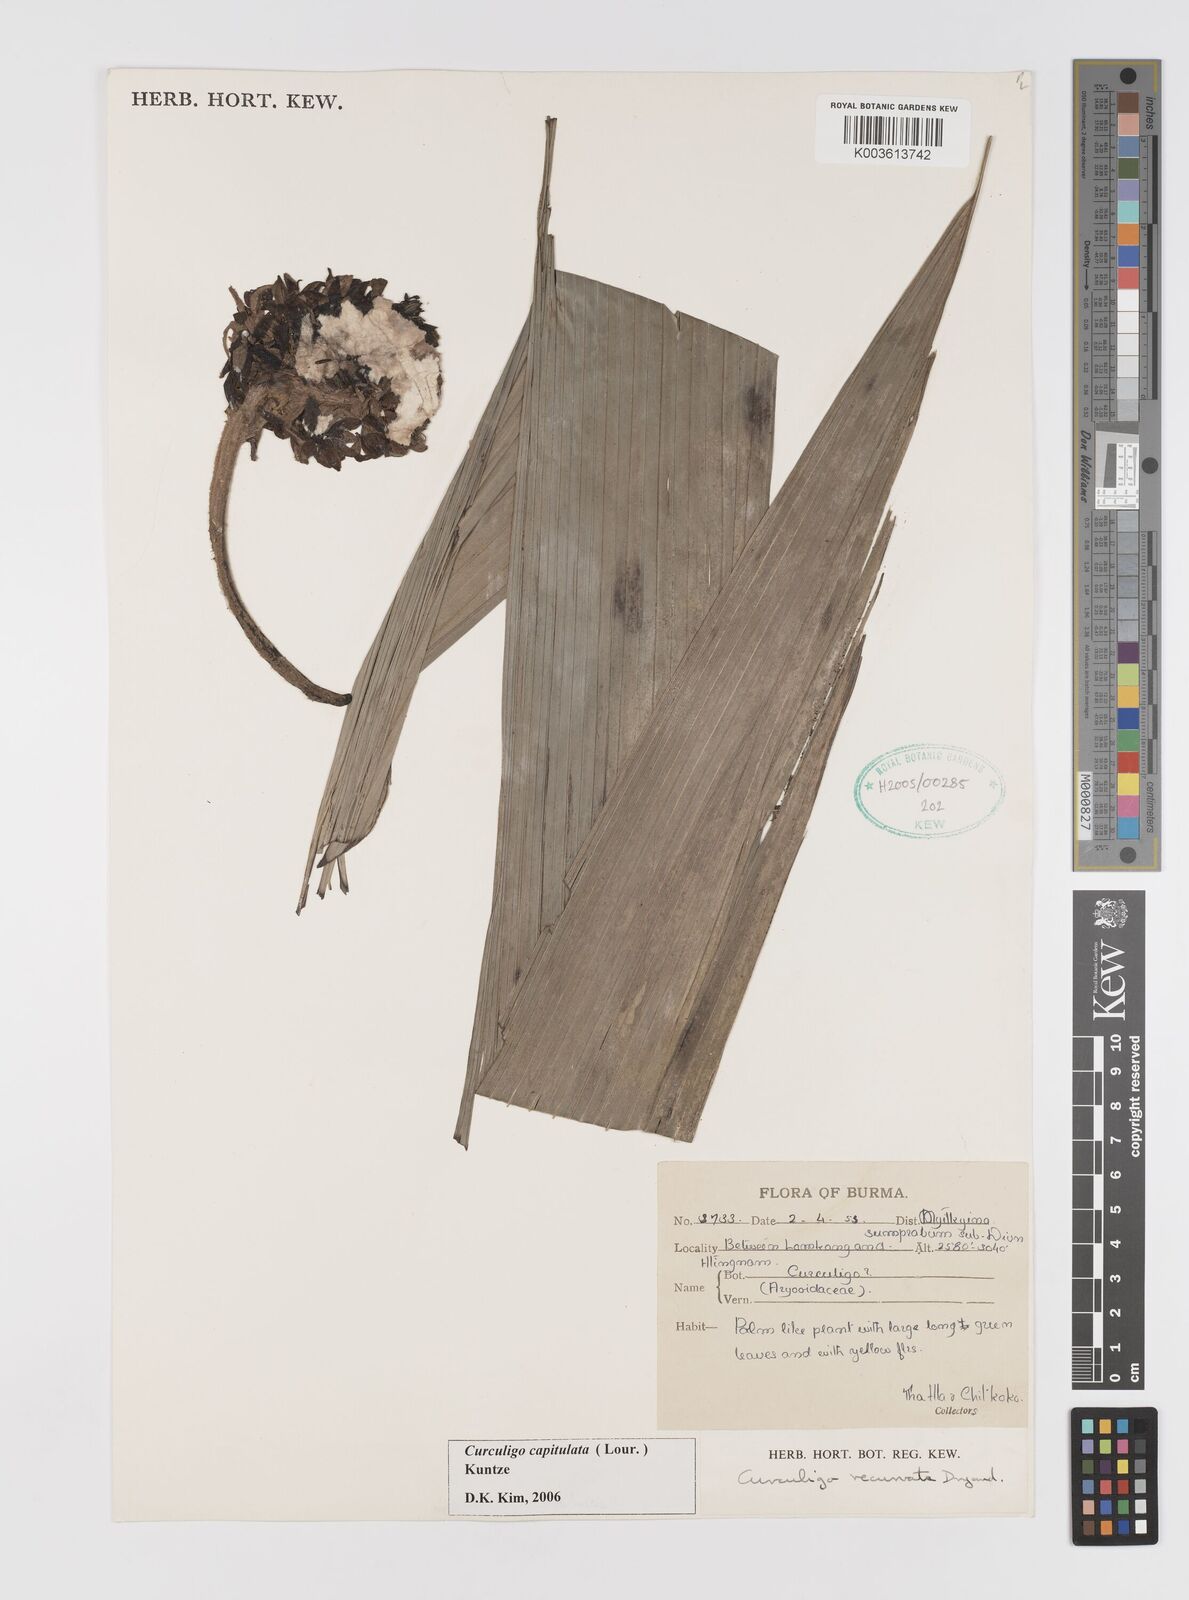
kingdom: Plantae
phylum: Tracheophyta
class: Liliopsida
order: Asparagales
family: Hypoxidaceae
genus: Curculigo
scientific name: Curculigo capitulata
